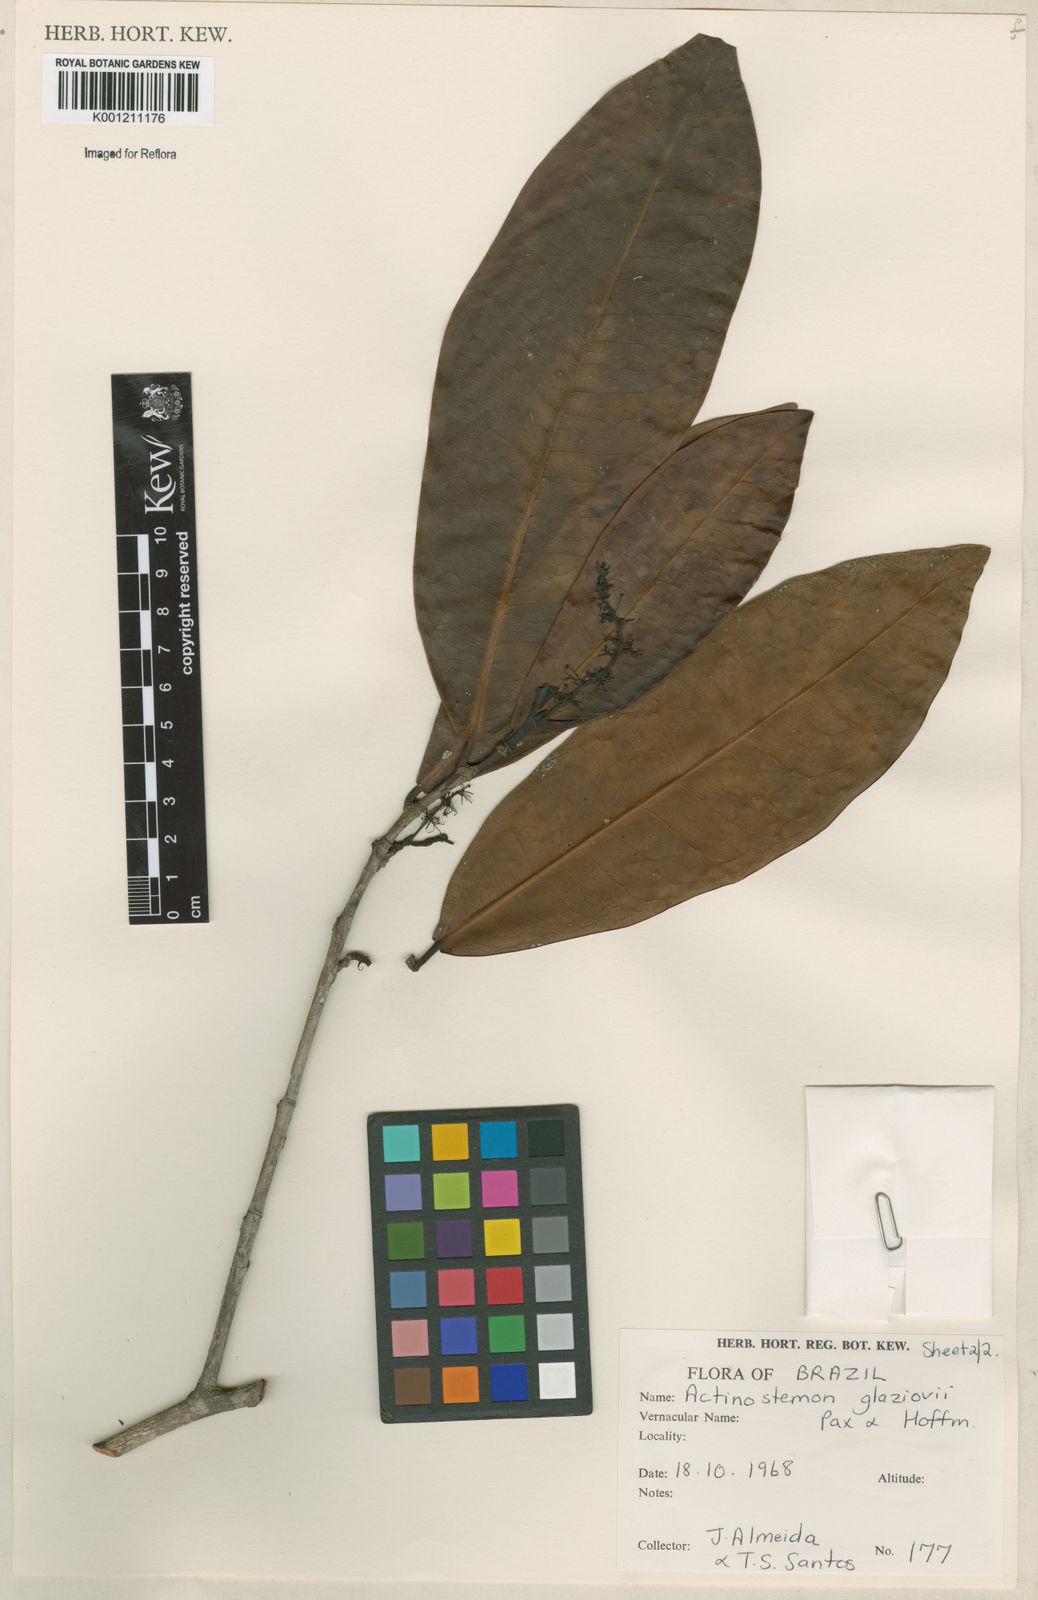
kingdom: Plantae
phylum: Tracheophyta
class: Magnoliopsida
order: Malpighiales
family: Euphorbiaceae
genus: Actinostemon
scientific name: Actinostemon glaziovii
